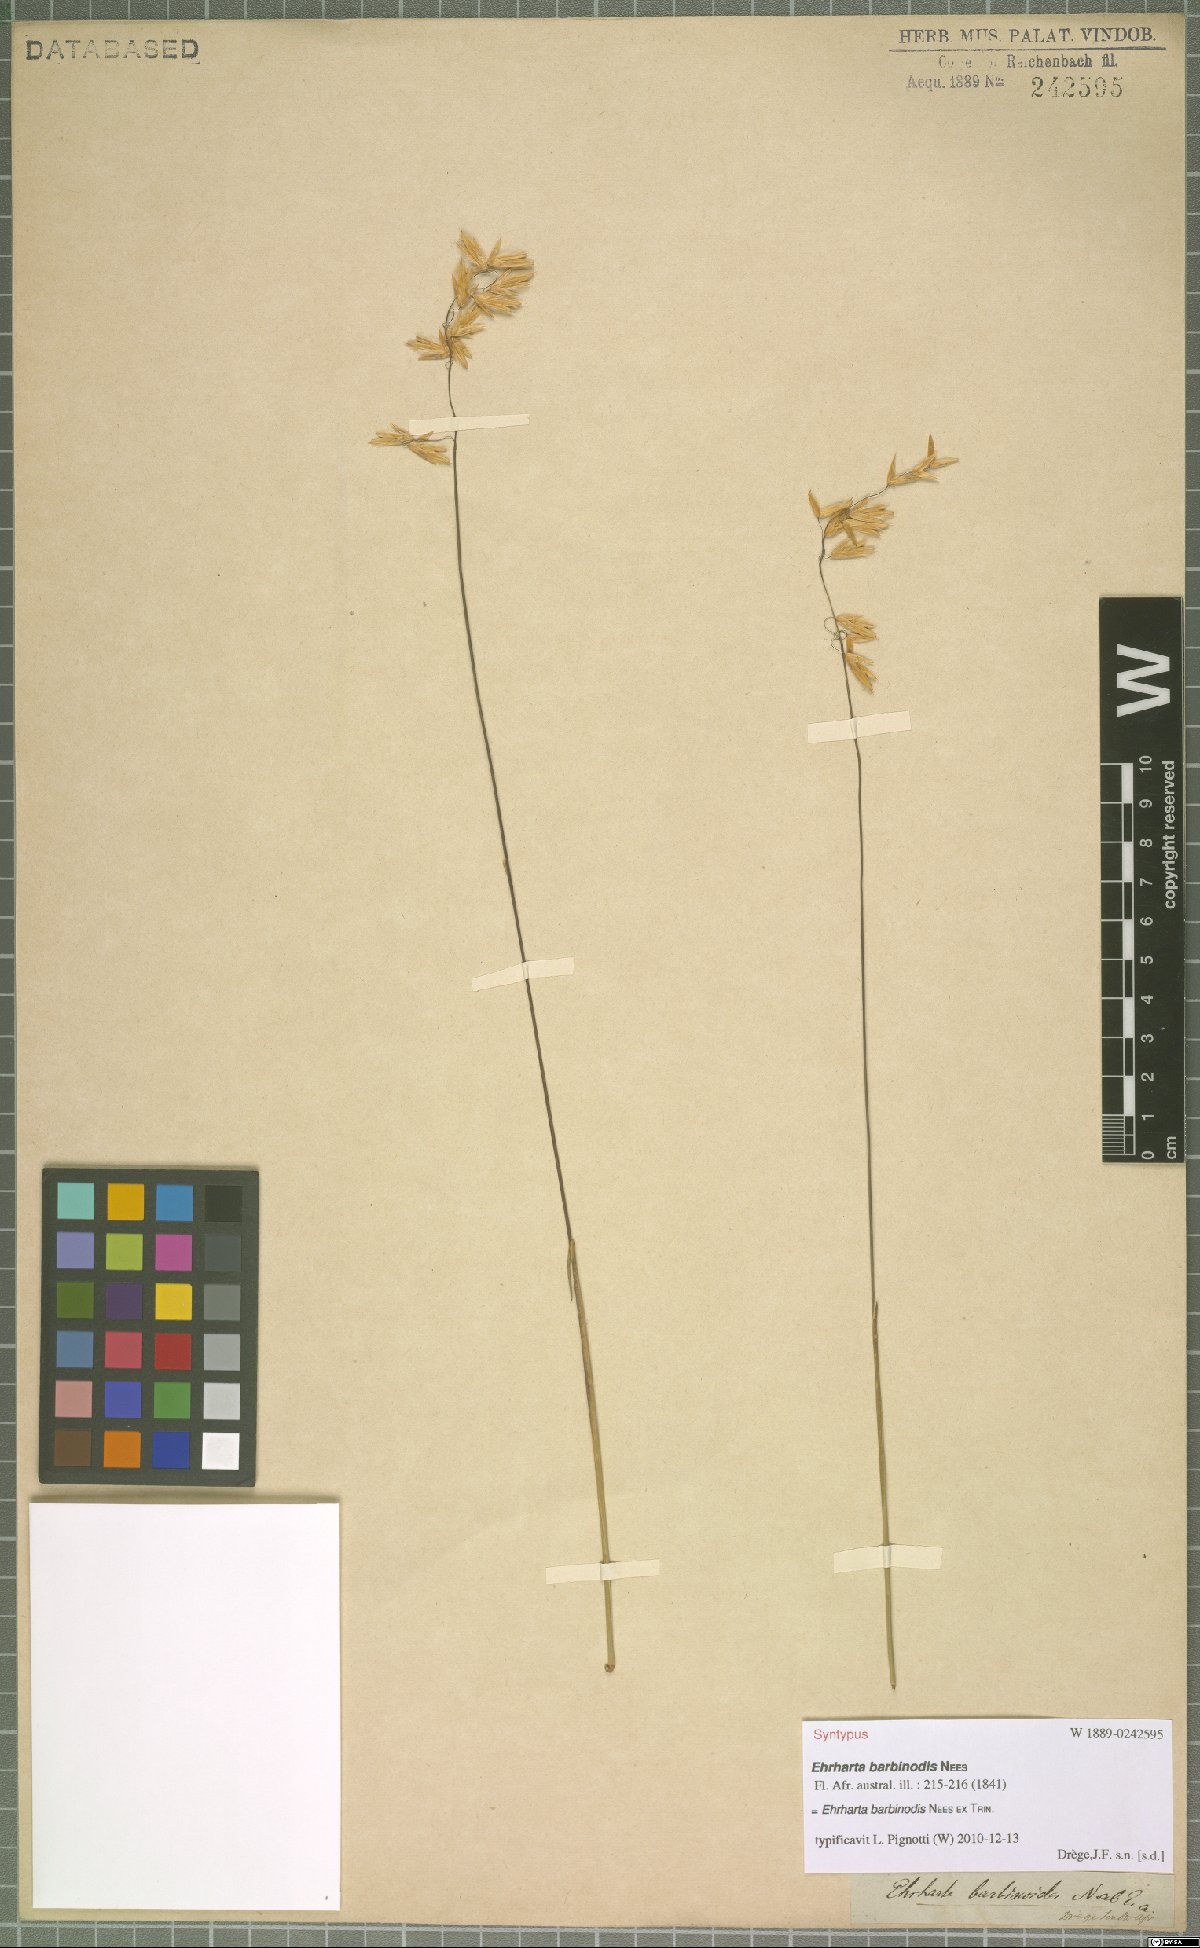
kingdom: Plantae
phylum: Tracheophyta
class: Liliopsida
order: Poales
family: Poaceae
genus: Ehrharta
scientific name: Ehrharta barbinodis
